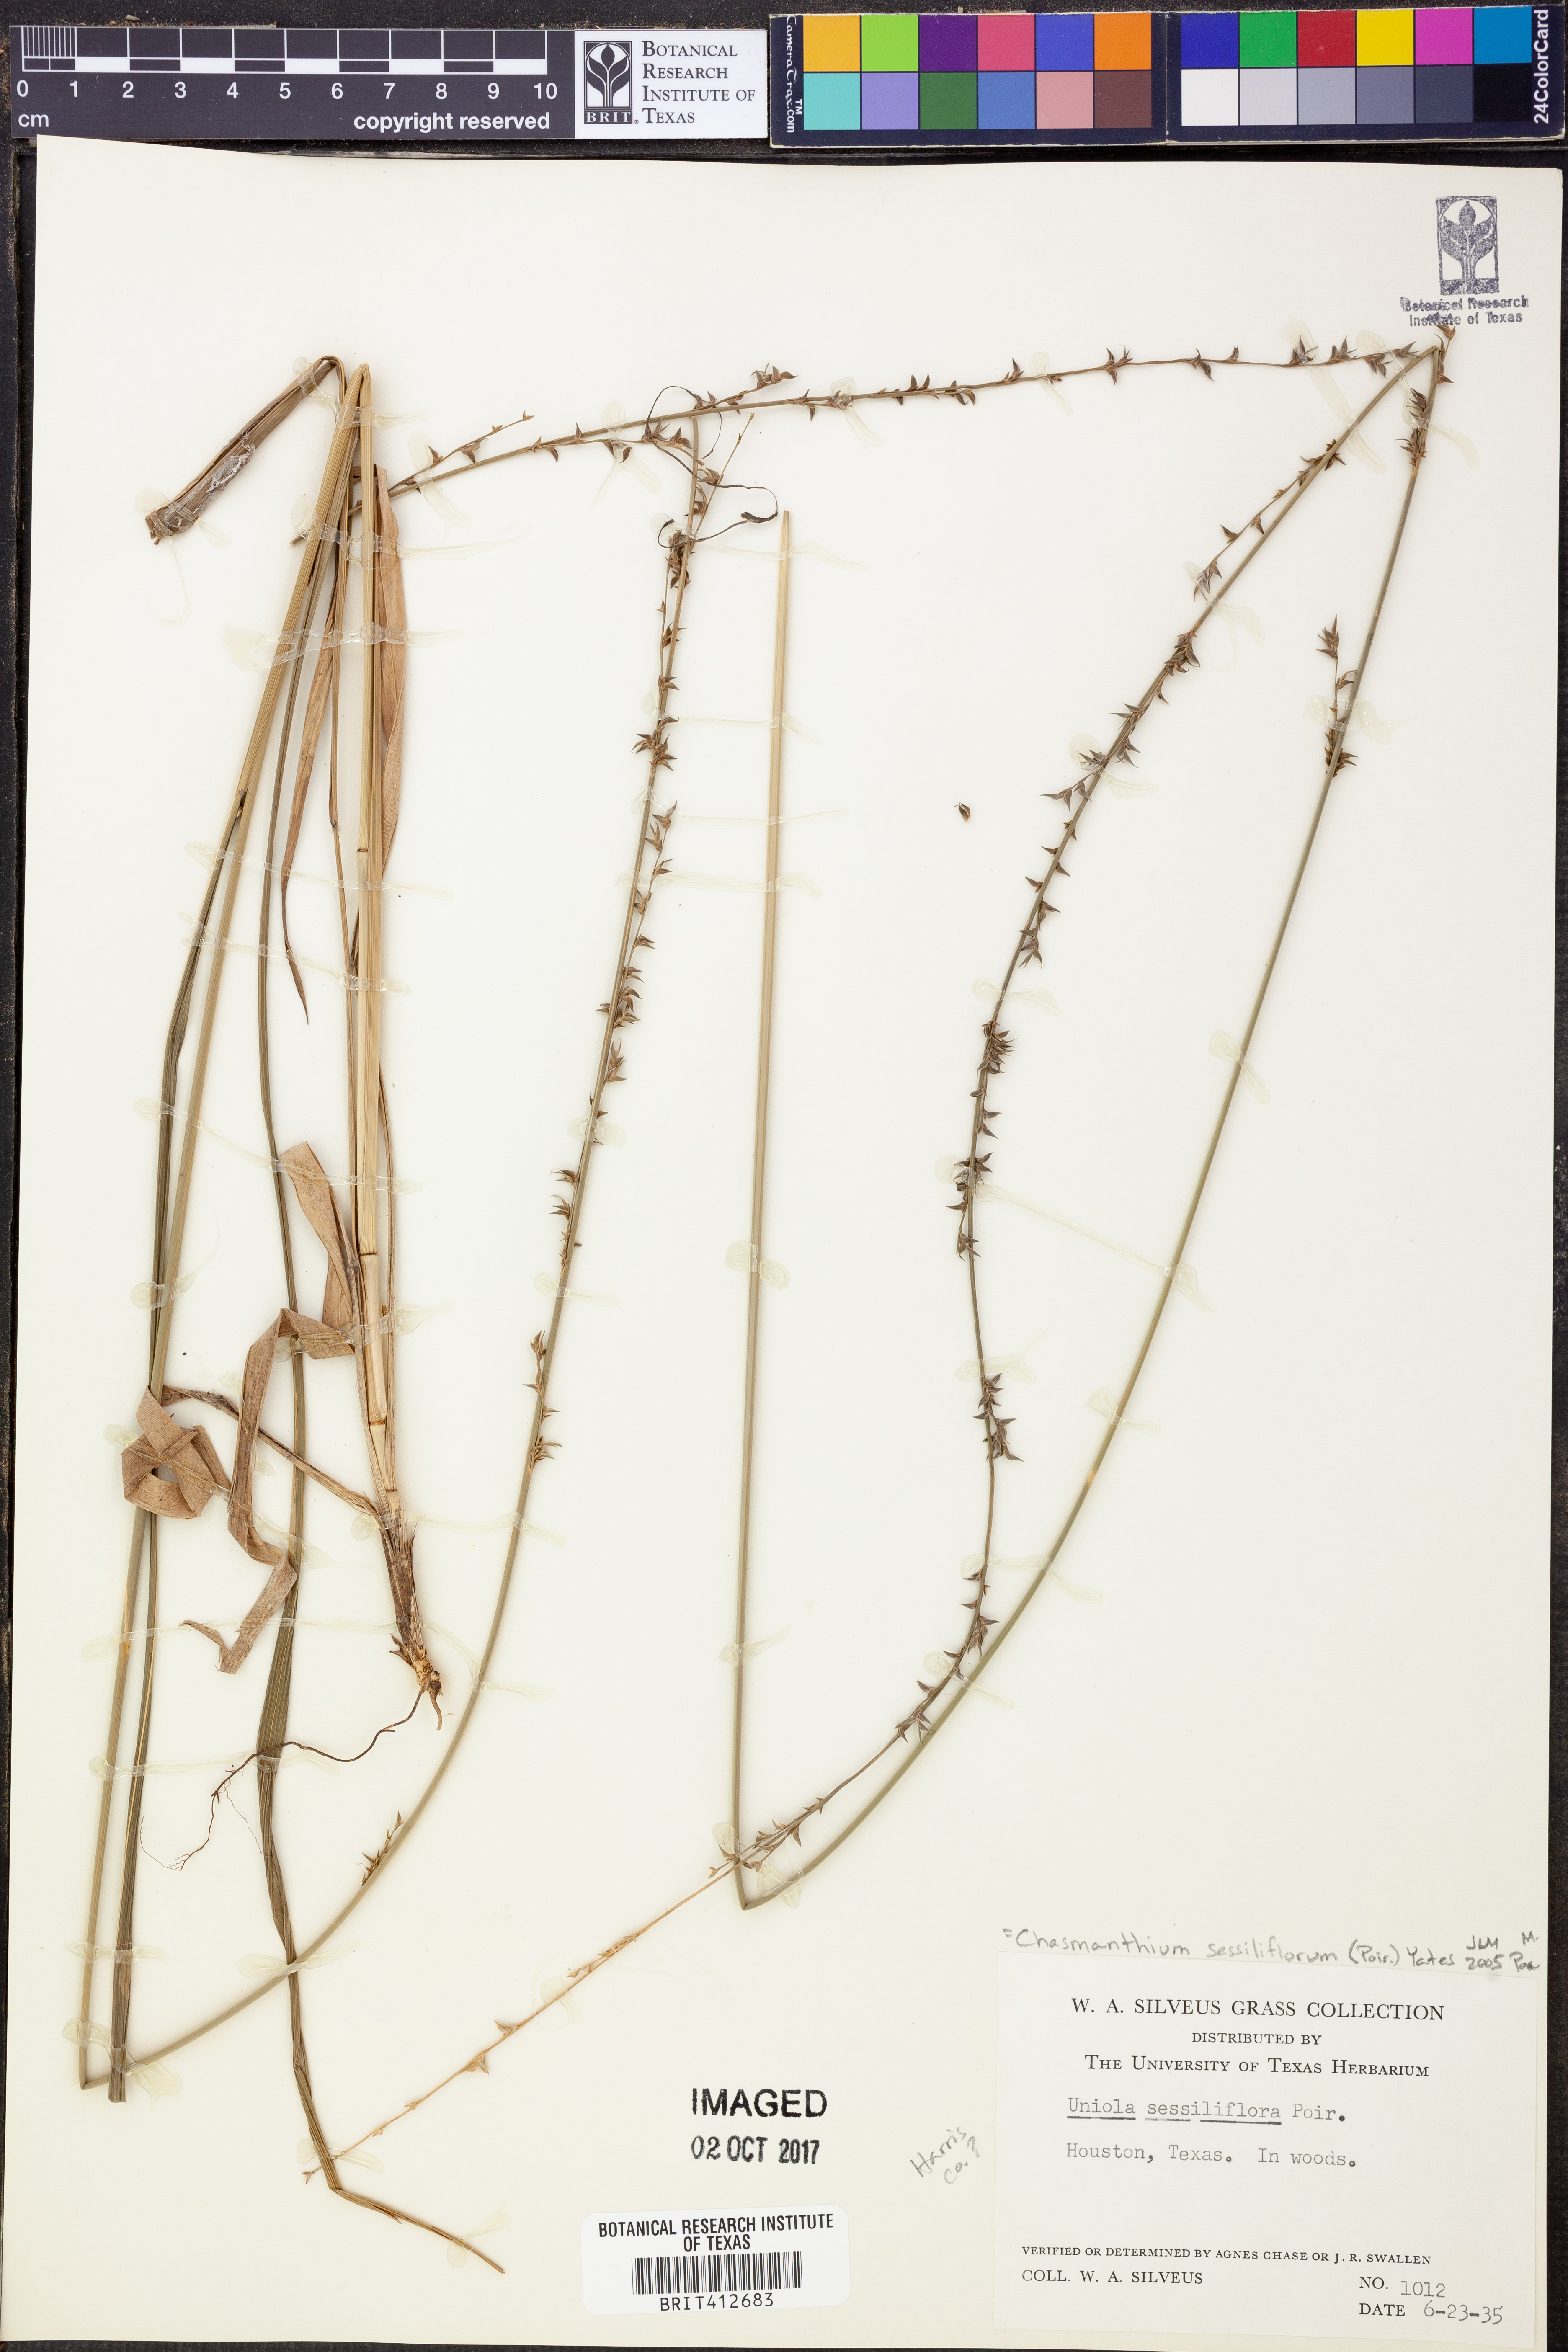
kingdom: Plantae
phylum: Tracheophyta
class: Liliopsida
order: Poales
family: Poaceae
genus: Chasmanthium
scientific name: Chasmanthium laxum
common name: Slender chasmanthium
